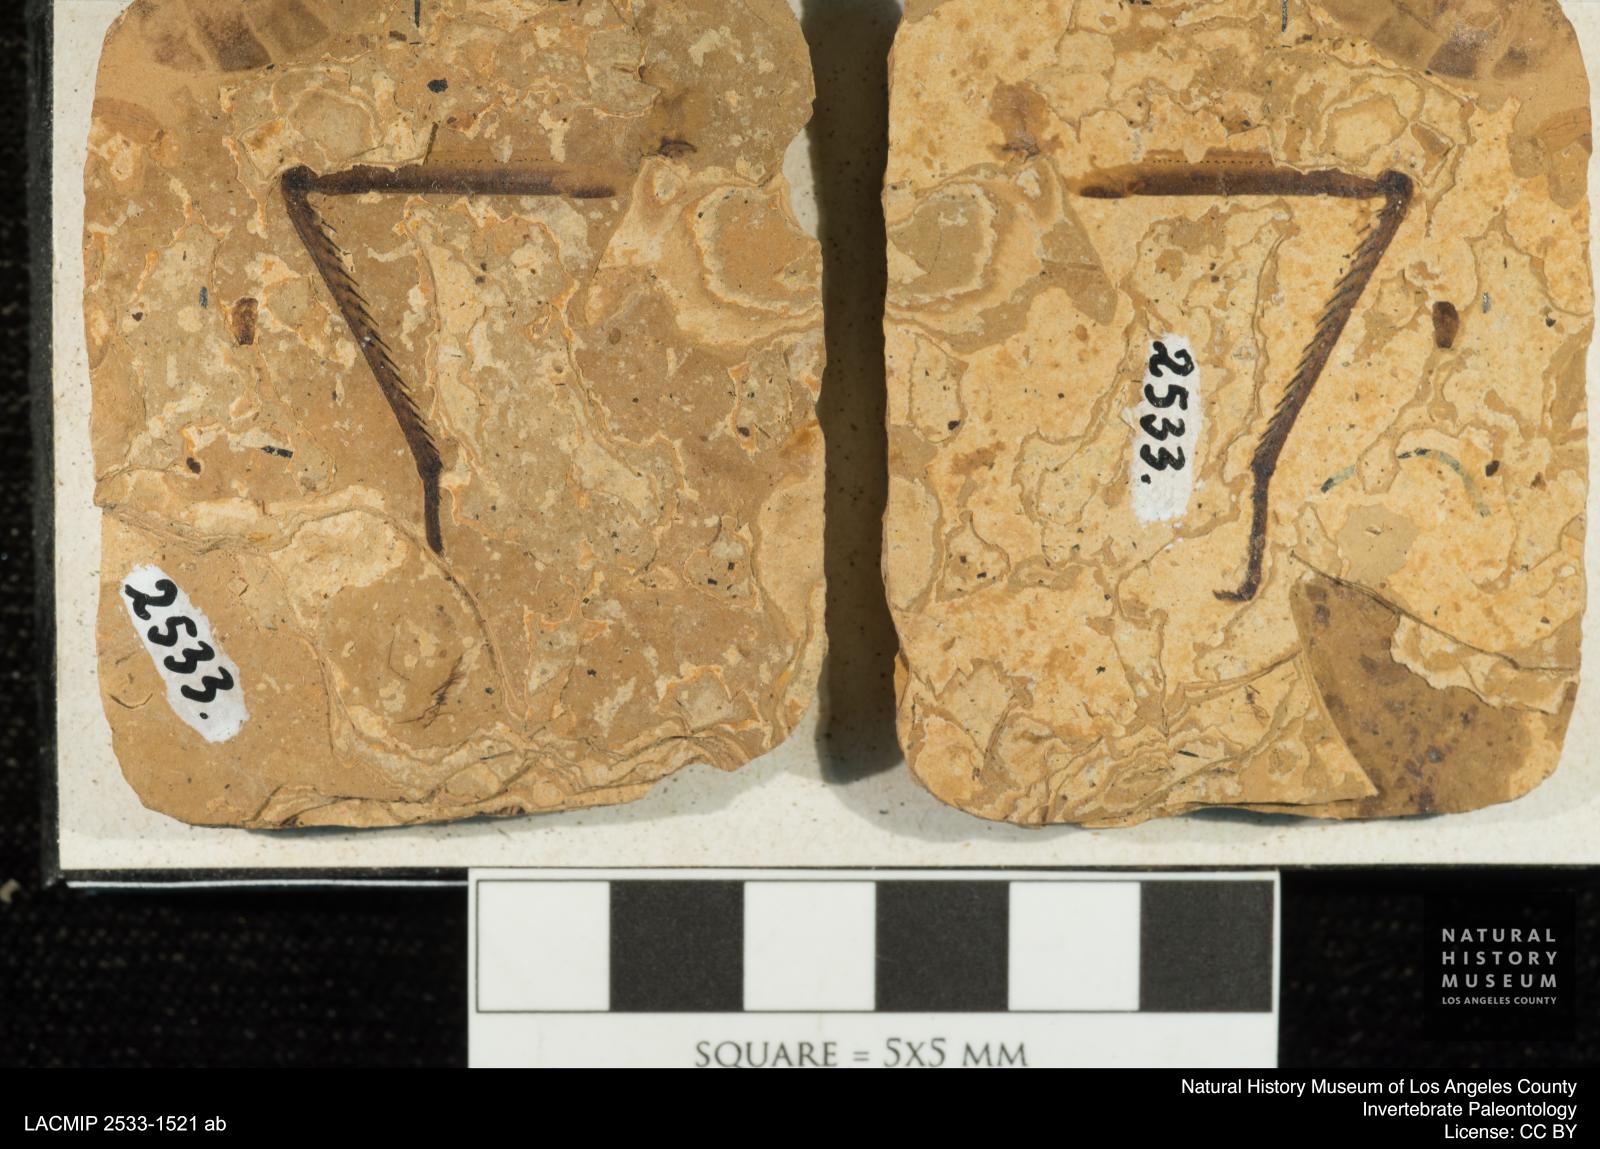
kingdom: Animalia
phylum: Arthropoda
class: Insecta
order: Odonata
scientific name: Odonata
